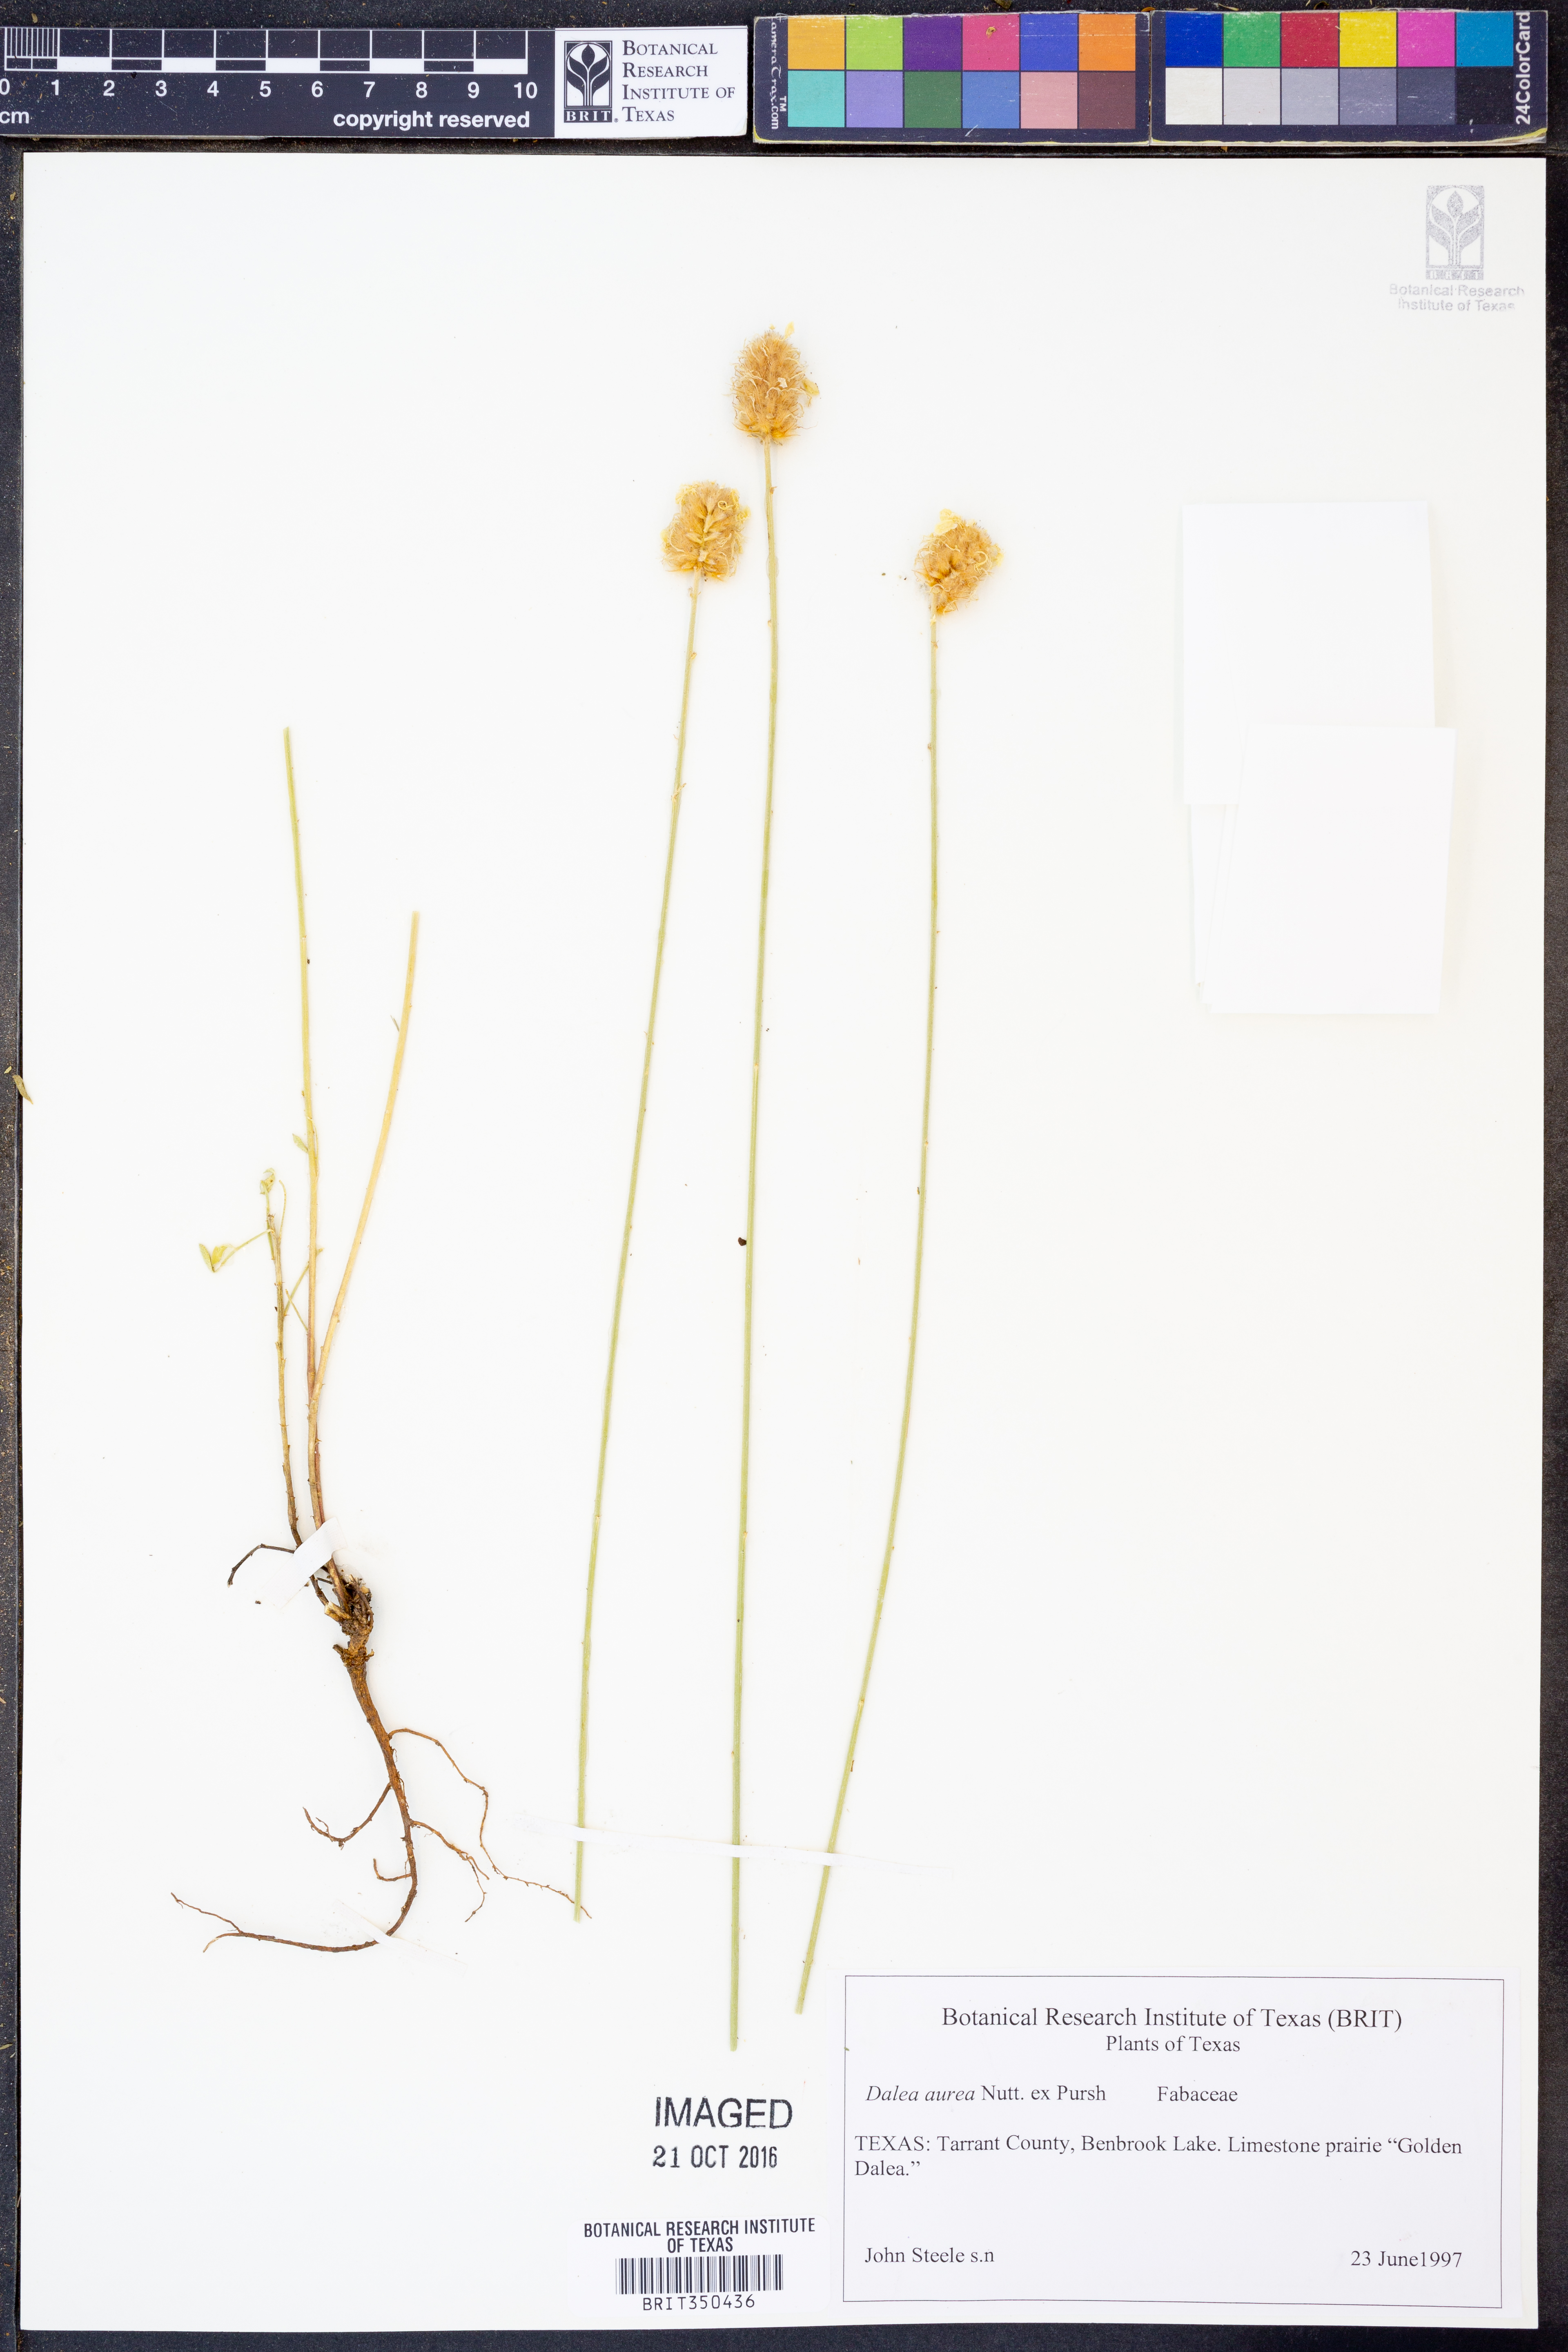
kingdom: Plantae
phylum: Tracheophyta
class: Magnoliopsida
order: Fabales
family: Fabaceae
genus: Dalea
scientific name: Dalea aurea
